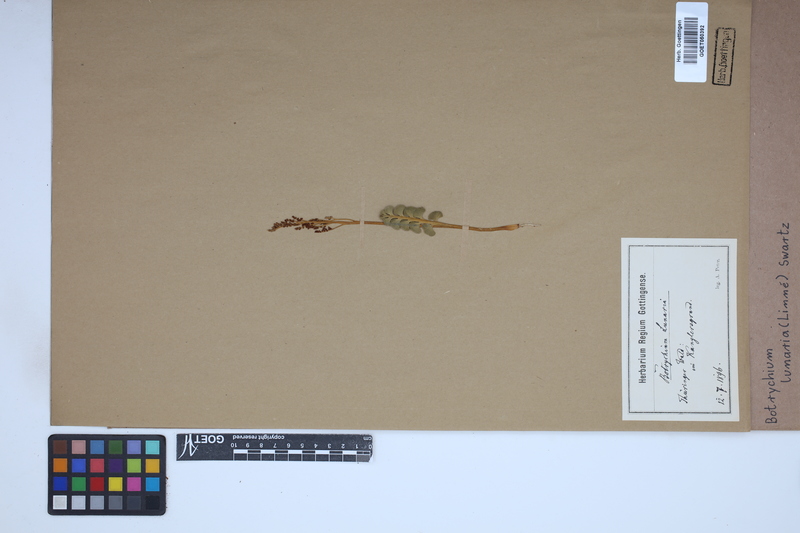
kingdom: Plantae
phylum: Tracheophyta
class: Polypodiopsida
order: Ophioglossales
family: Ophioglossaceae
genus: Botrychium
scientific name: Botrychium lunaria
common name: Moonwort
